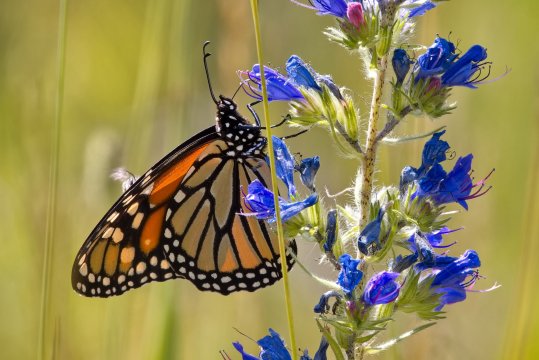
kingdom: Animalia
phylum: Arthropoda
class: Insecta
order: Lepidoptera
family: Nymphalidae
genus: Danaus
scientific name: Danaus plexippus
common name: Monarch
